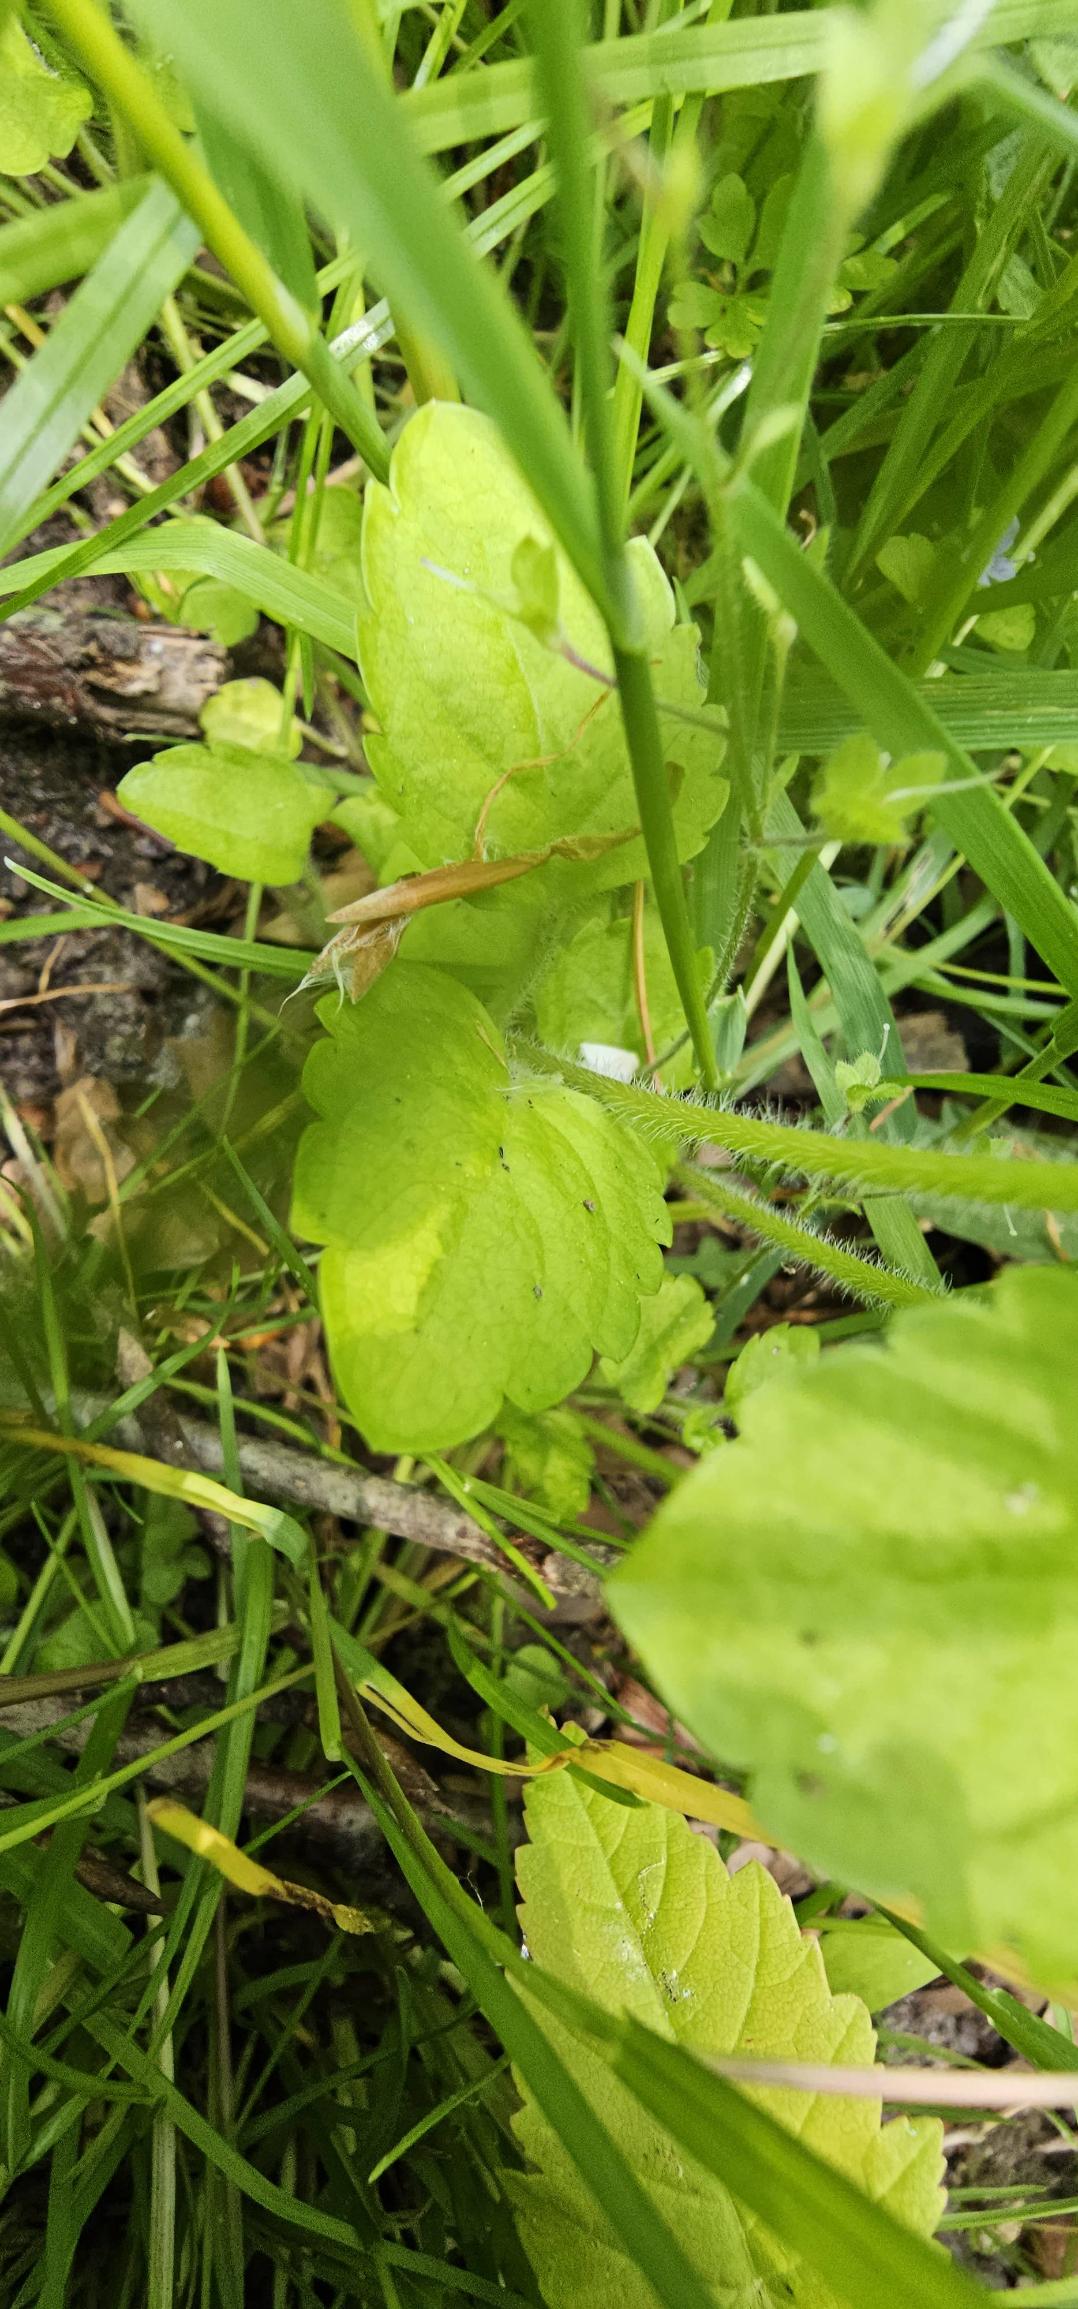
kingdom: Plantae
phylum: Tracheophyta
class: Magnoliopsida
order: Lamiales
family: Plantaginaceae
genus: Veronica
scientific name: Veronica montana
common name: Bjerg-ærenpris
